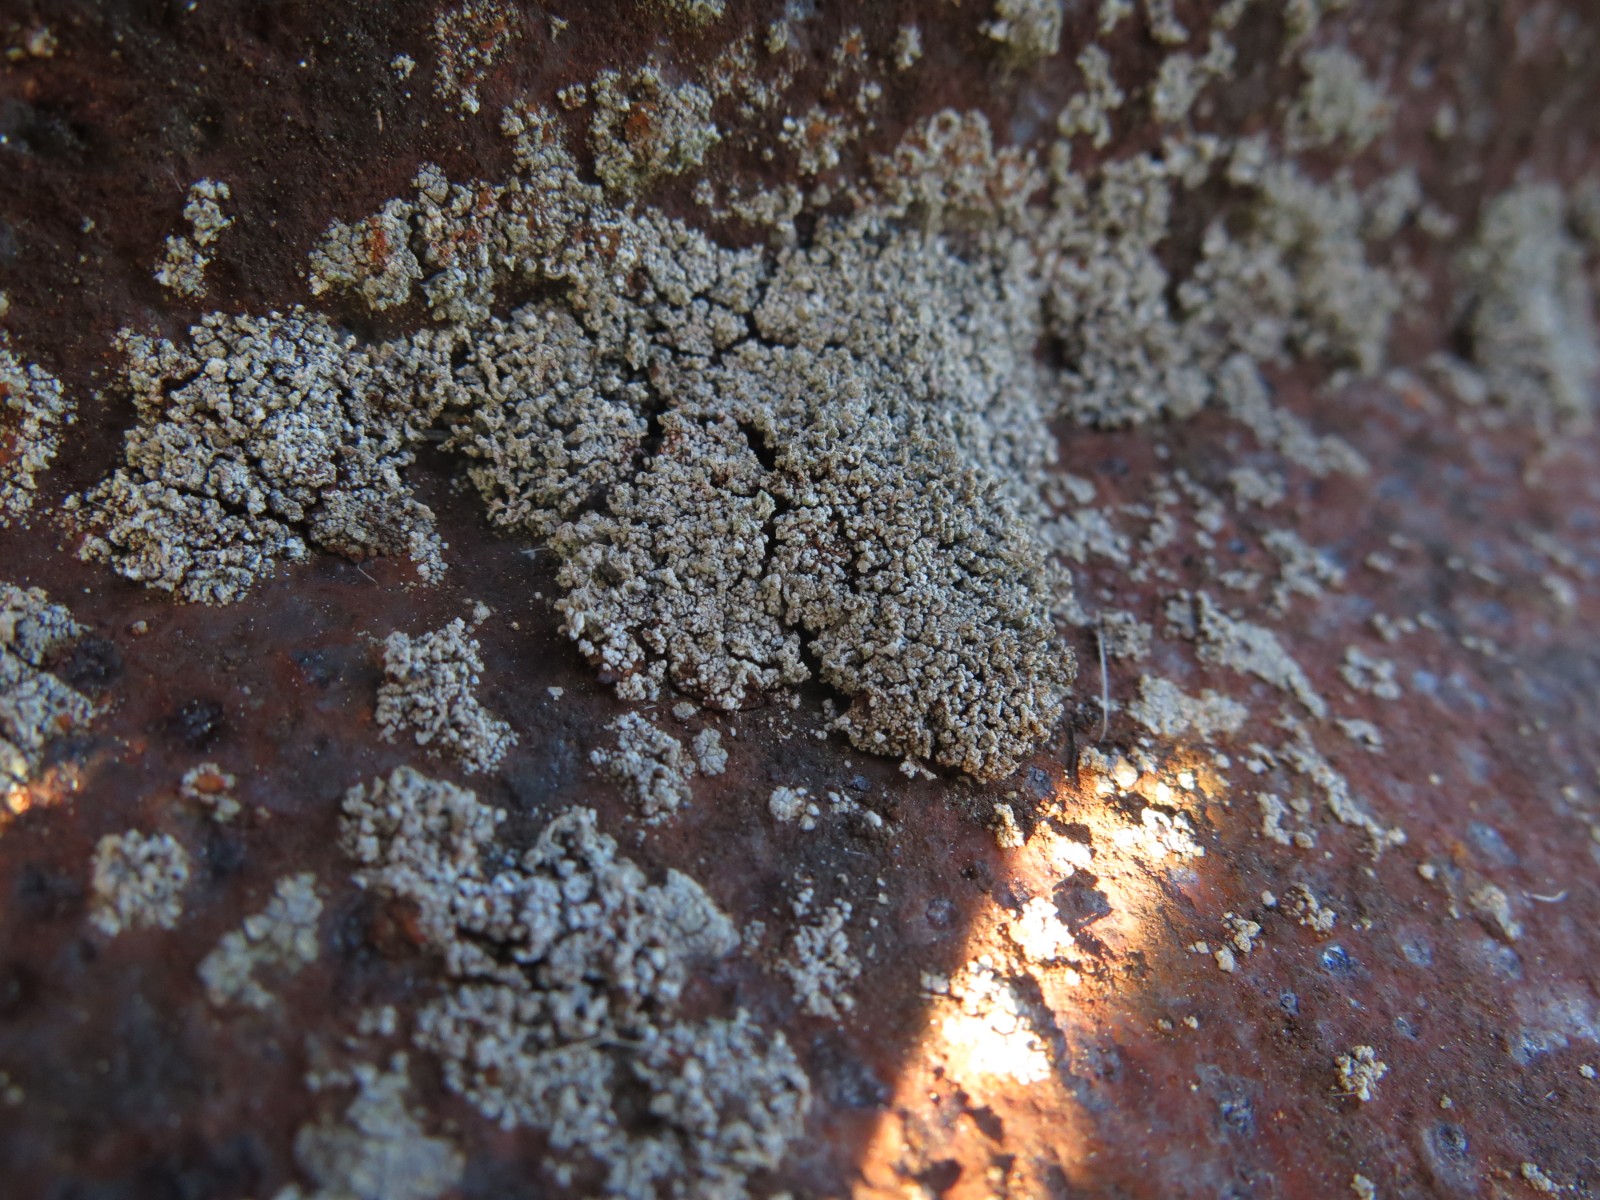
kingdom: Fungi
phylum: Ascomycota
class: Lecanoromycetes
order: Lecanorales
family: Stereocaulaceae
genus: Stereocaulon
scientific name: Stereocaulon nanodes
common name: liden korallav
